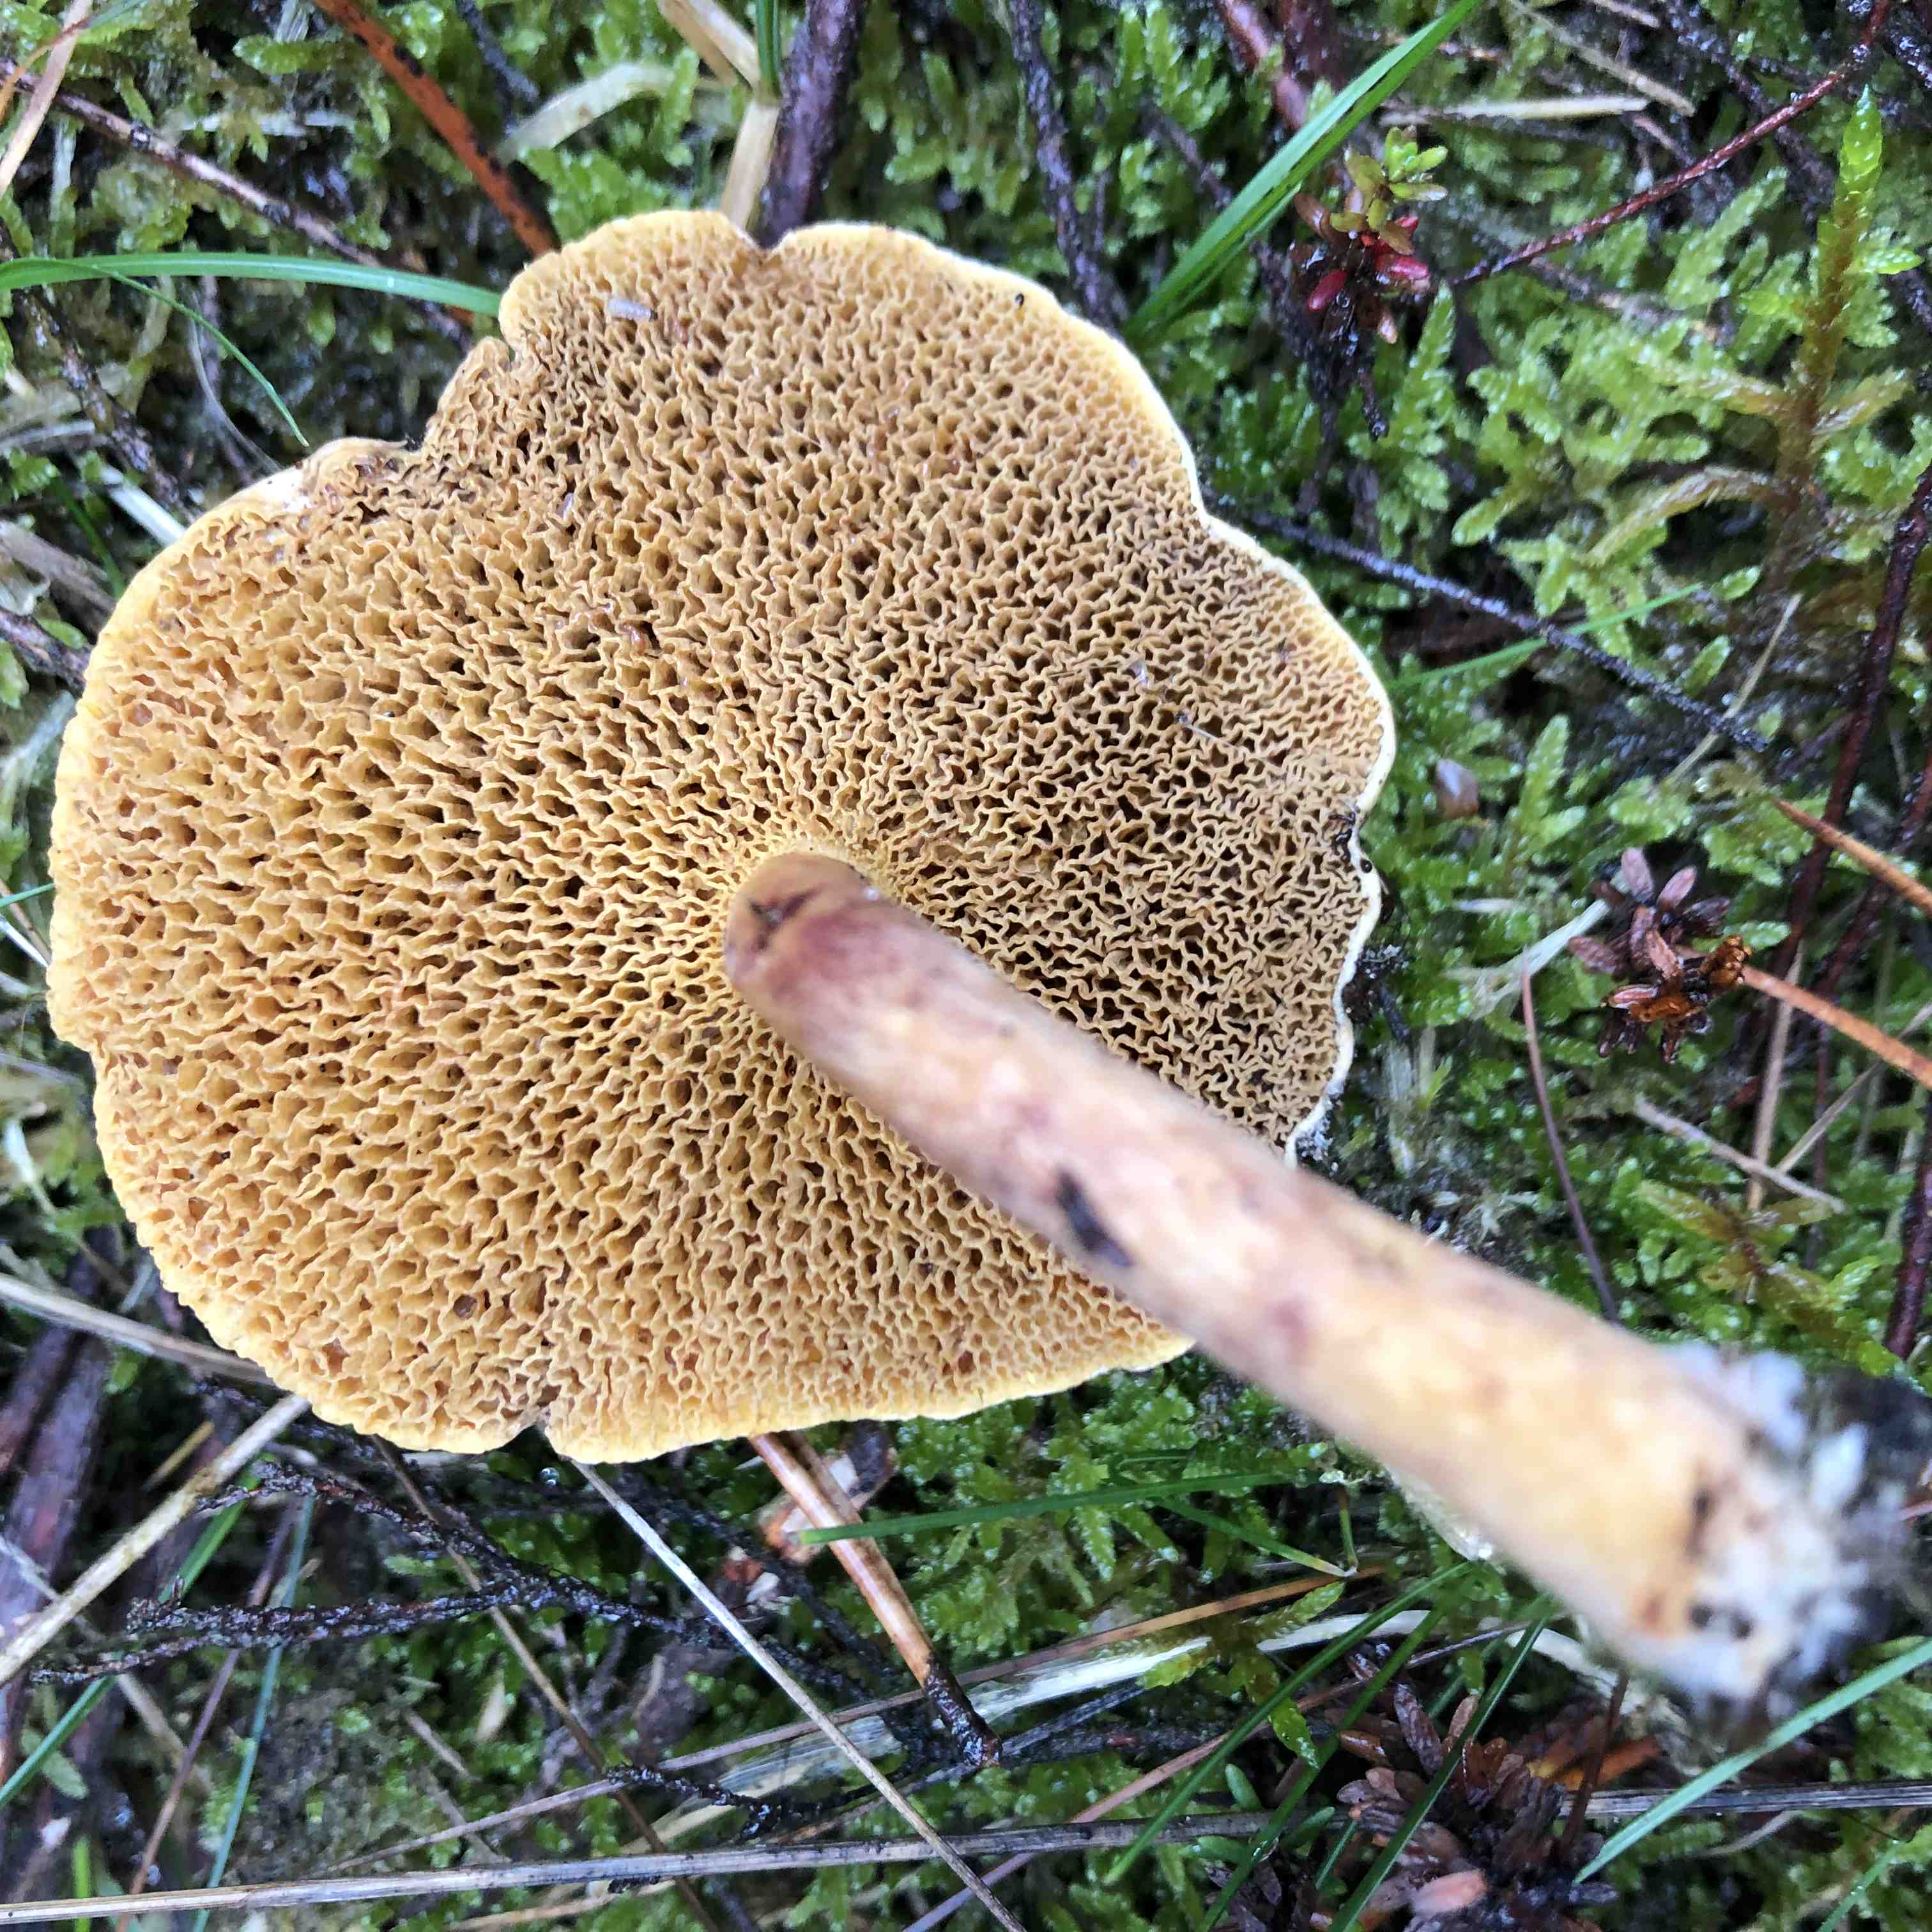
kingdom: Fungi
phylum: Basidiomycota
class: Agaricomycetes
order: Boletales
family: Suillaceae
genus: Suillus
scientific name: Suillus bovinus
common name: grovporet slimrørhat
